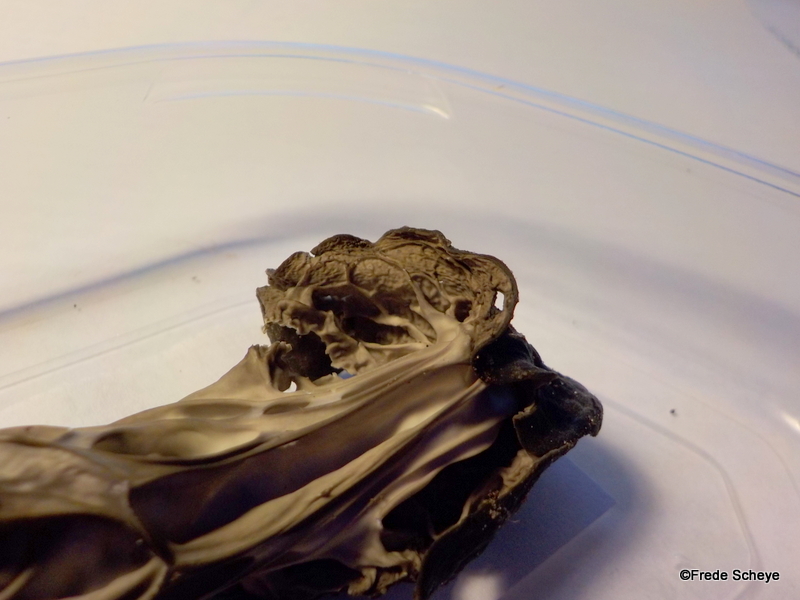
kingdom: Fungi
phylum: Ascomycota
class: Pezizomycetes
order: Pezizales
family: Helvellaceae
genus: Helvella
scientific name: Helvella lacunosa
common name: grubet foldhat
